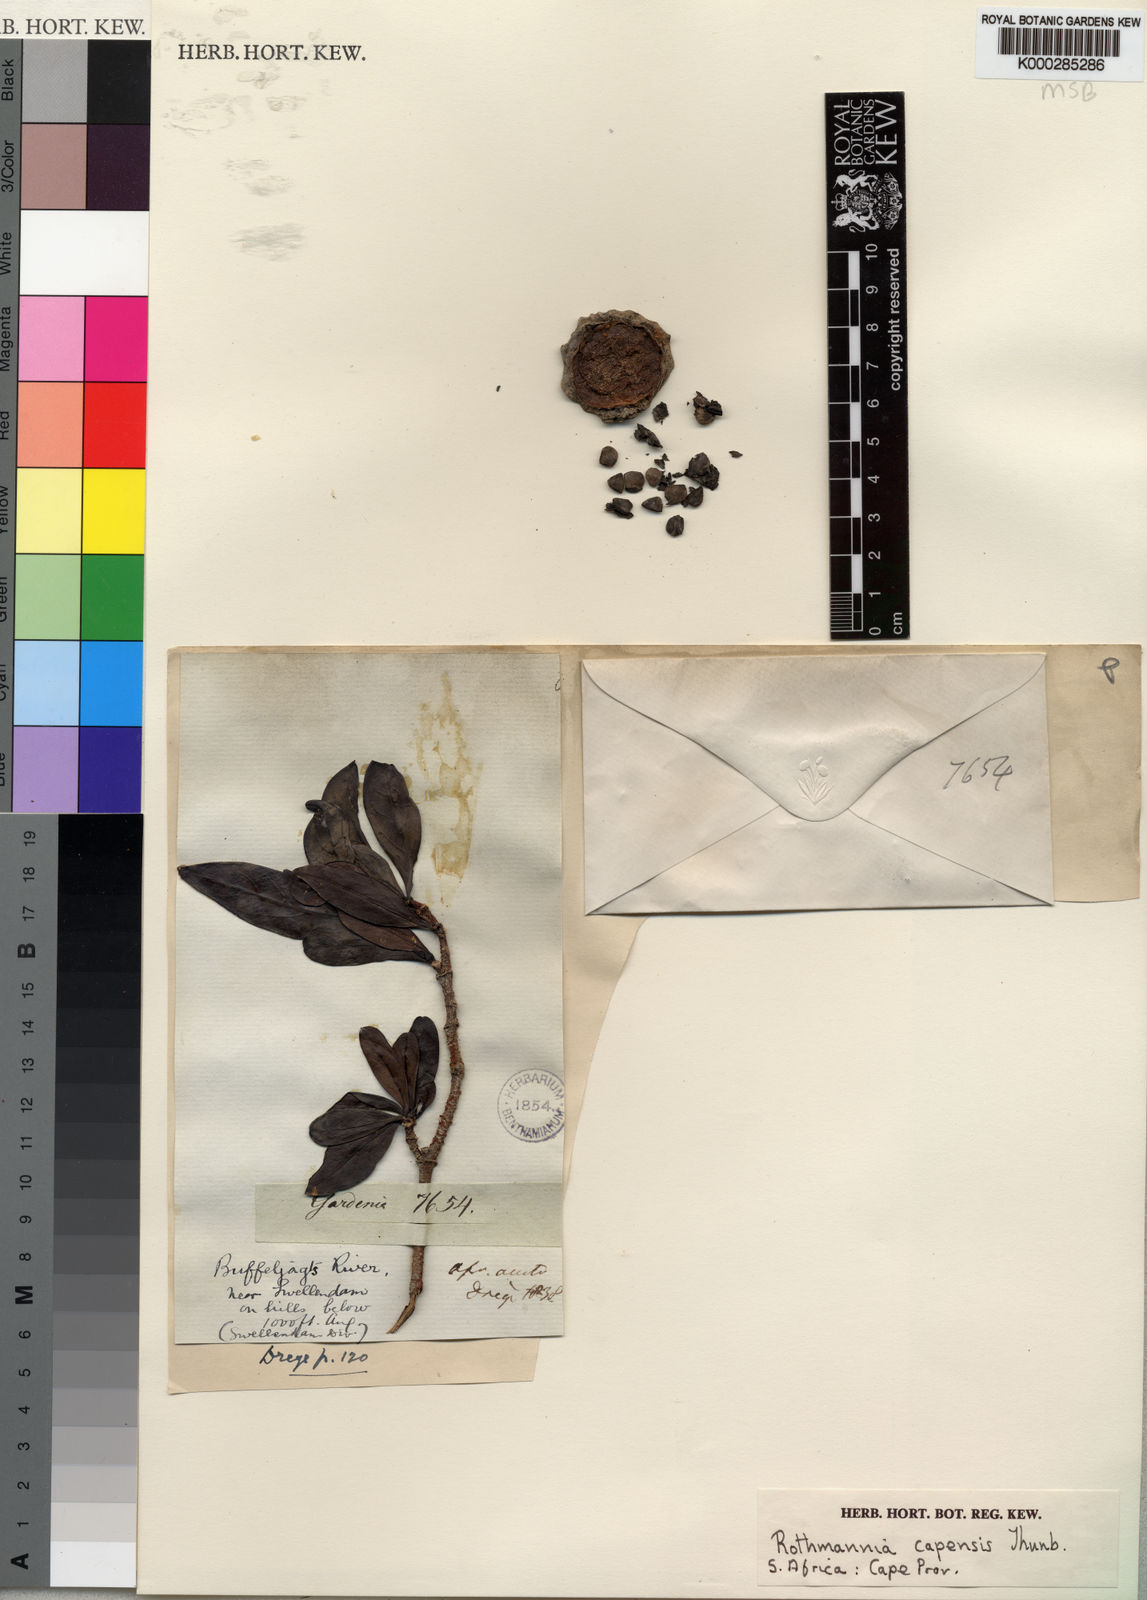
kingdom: Plantae
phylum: Tracheophyta
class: Magnoliopsida
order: Gentianales
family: Rubiaceae
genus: Rothmannia
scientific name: Rothmannia capensis
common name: Cape gardenia
